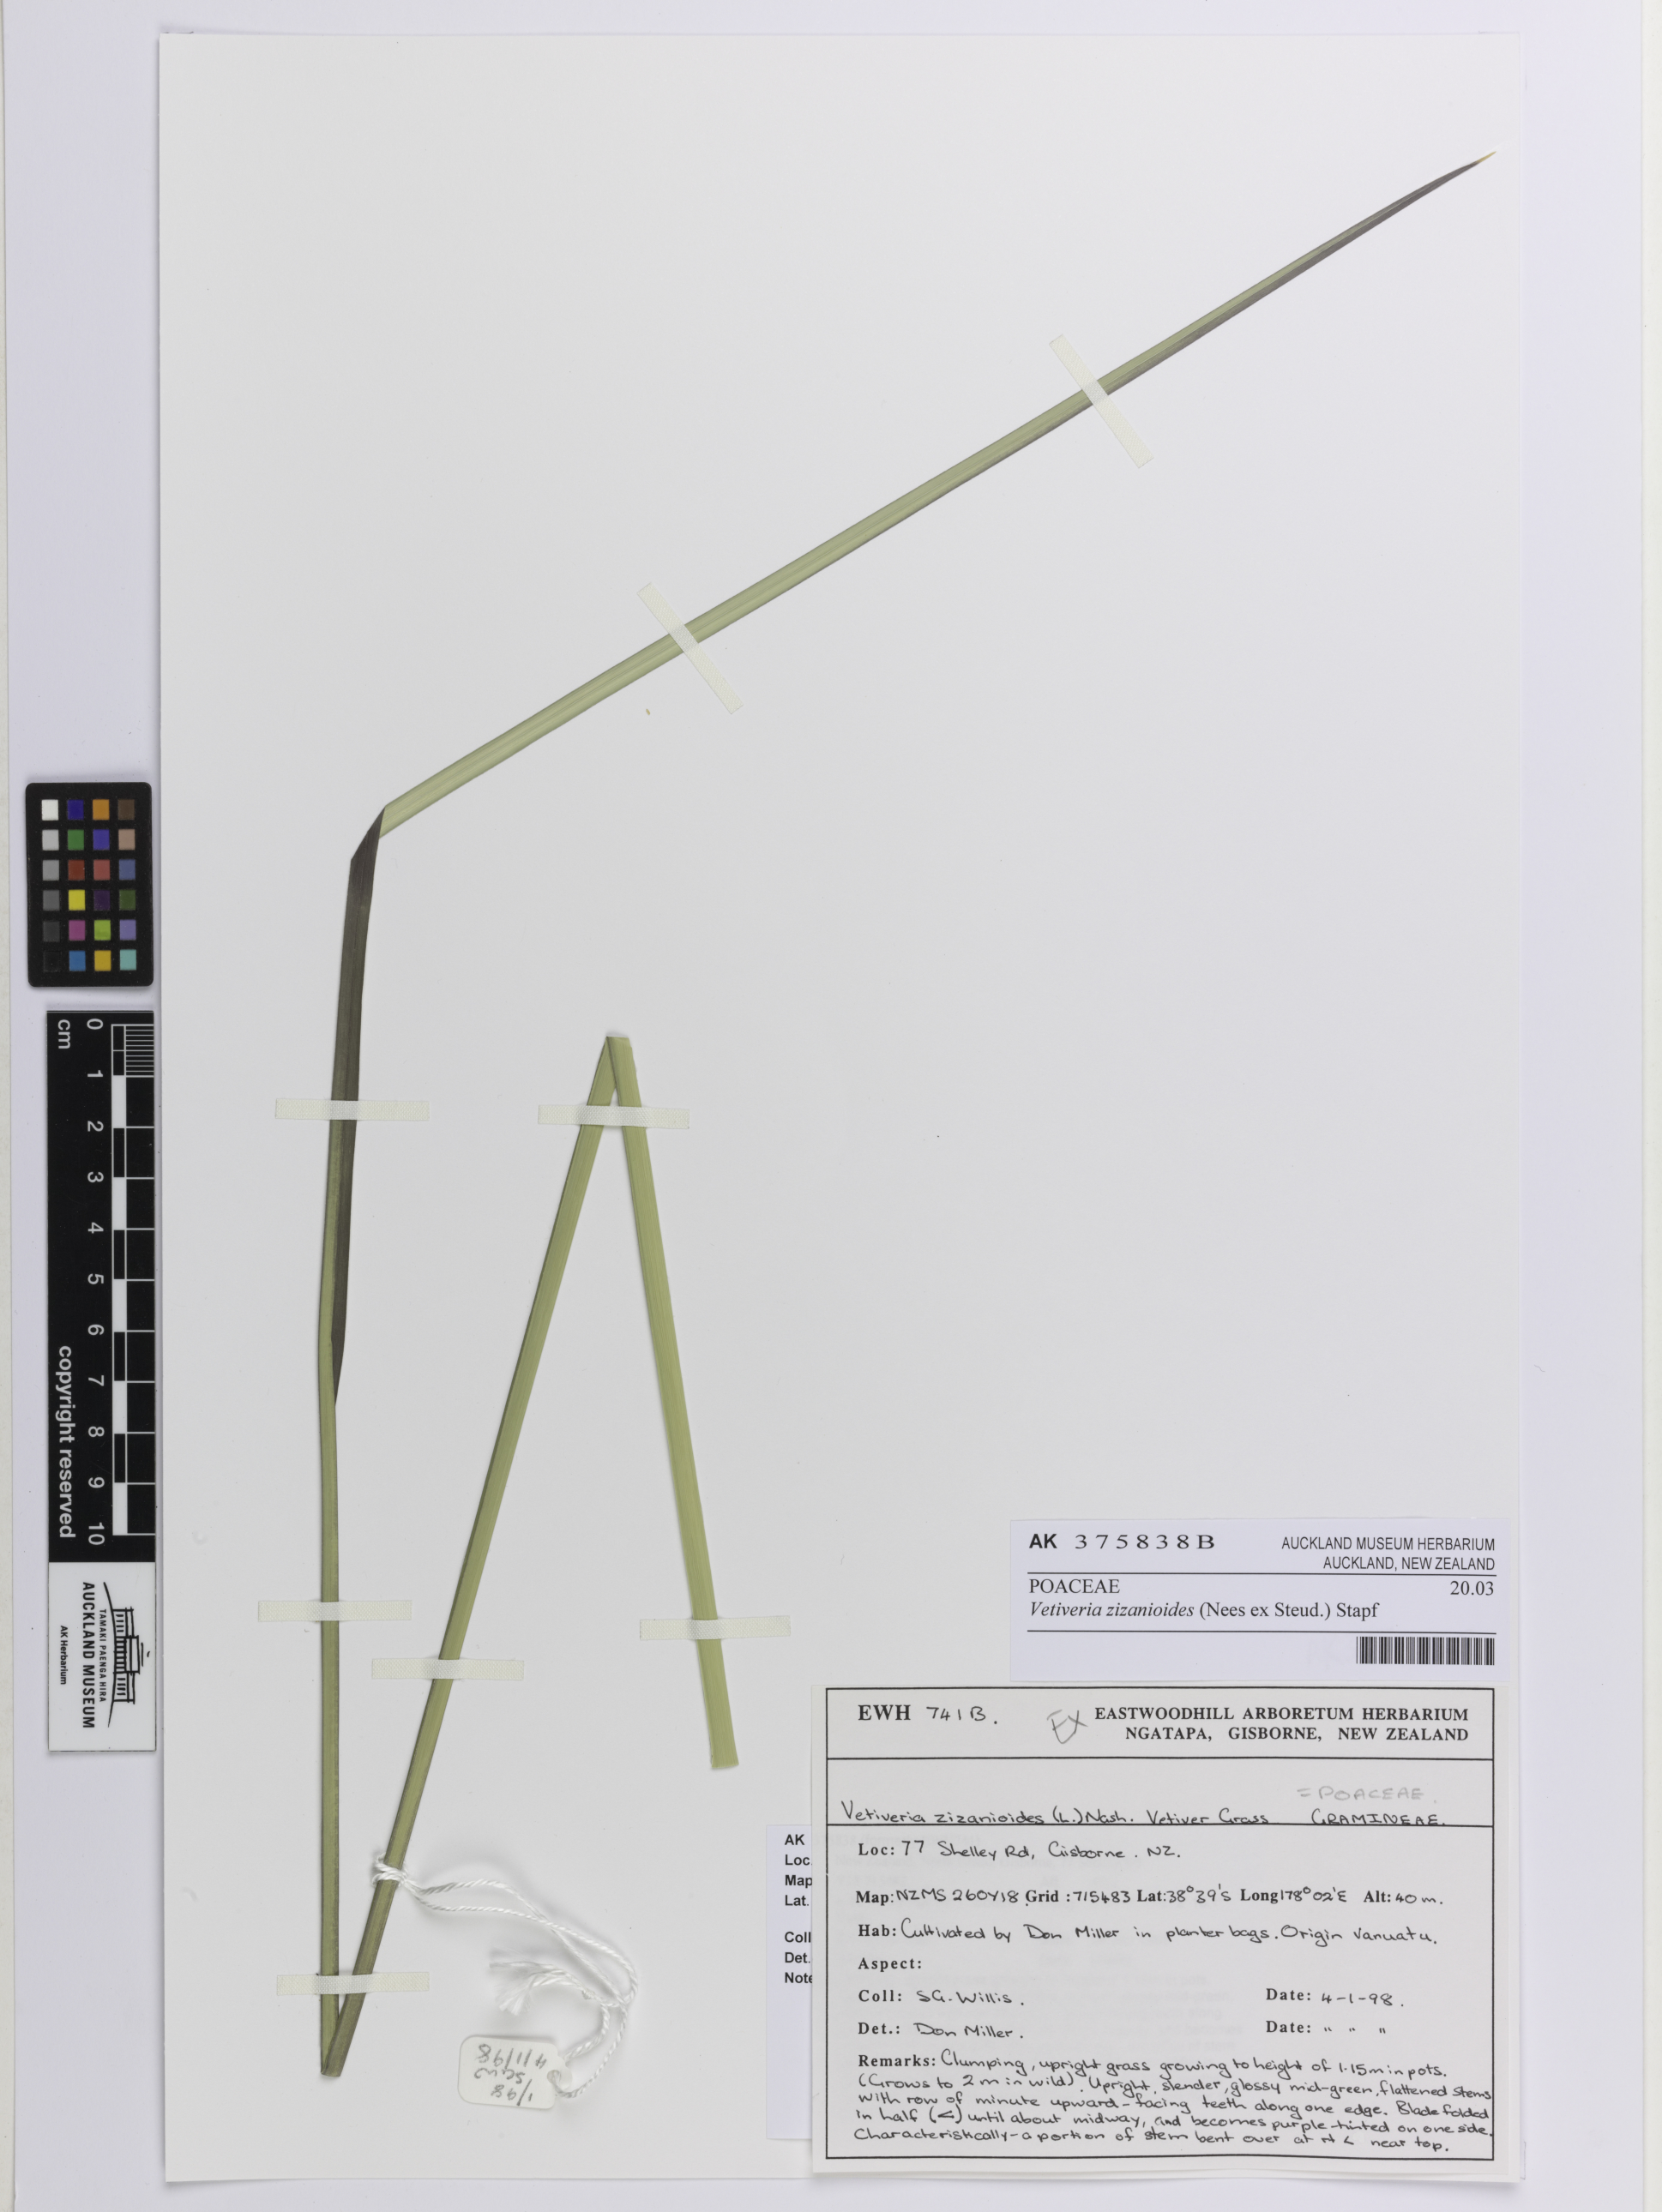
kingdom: Plantae
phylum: Tracheophyta
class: Liliopsida
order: Poales
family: Poaceae
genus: Chrysopogon
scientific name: Chrysopogon zizanioides
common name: False beardgrass
